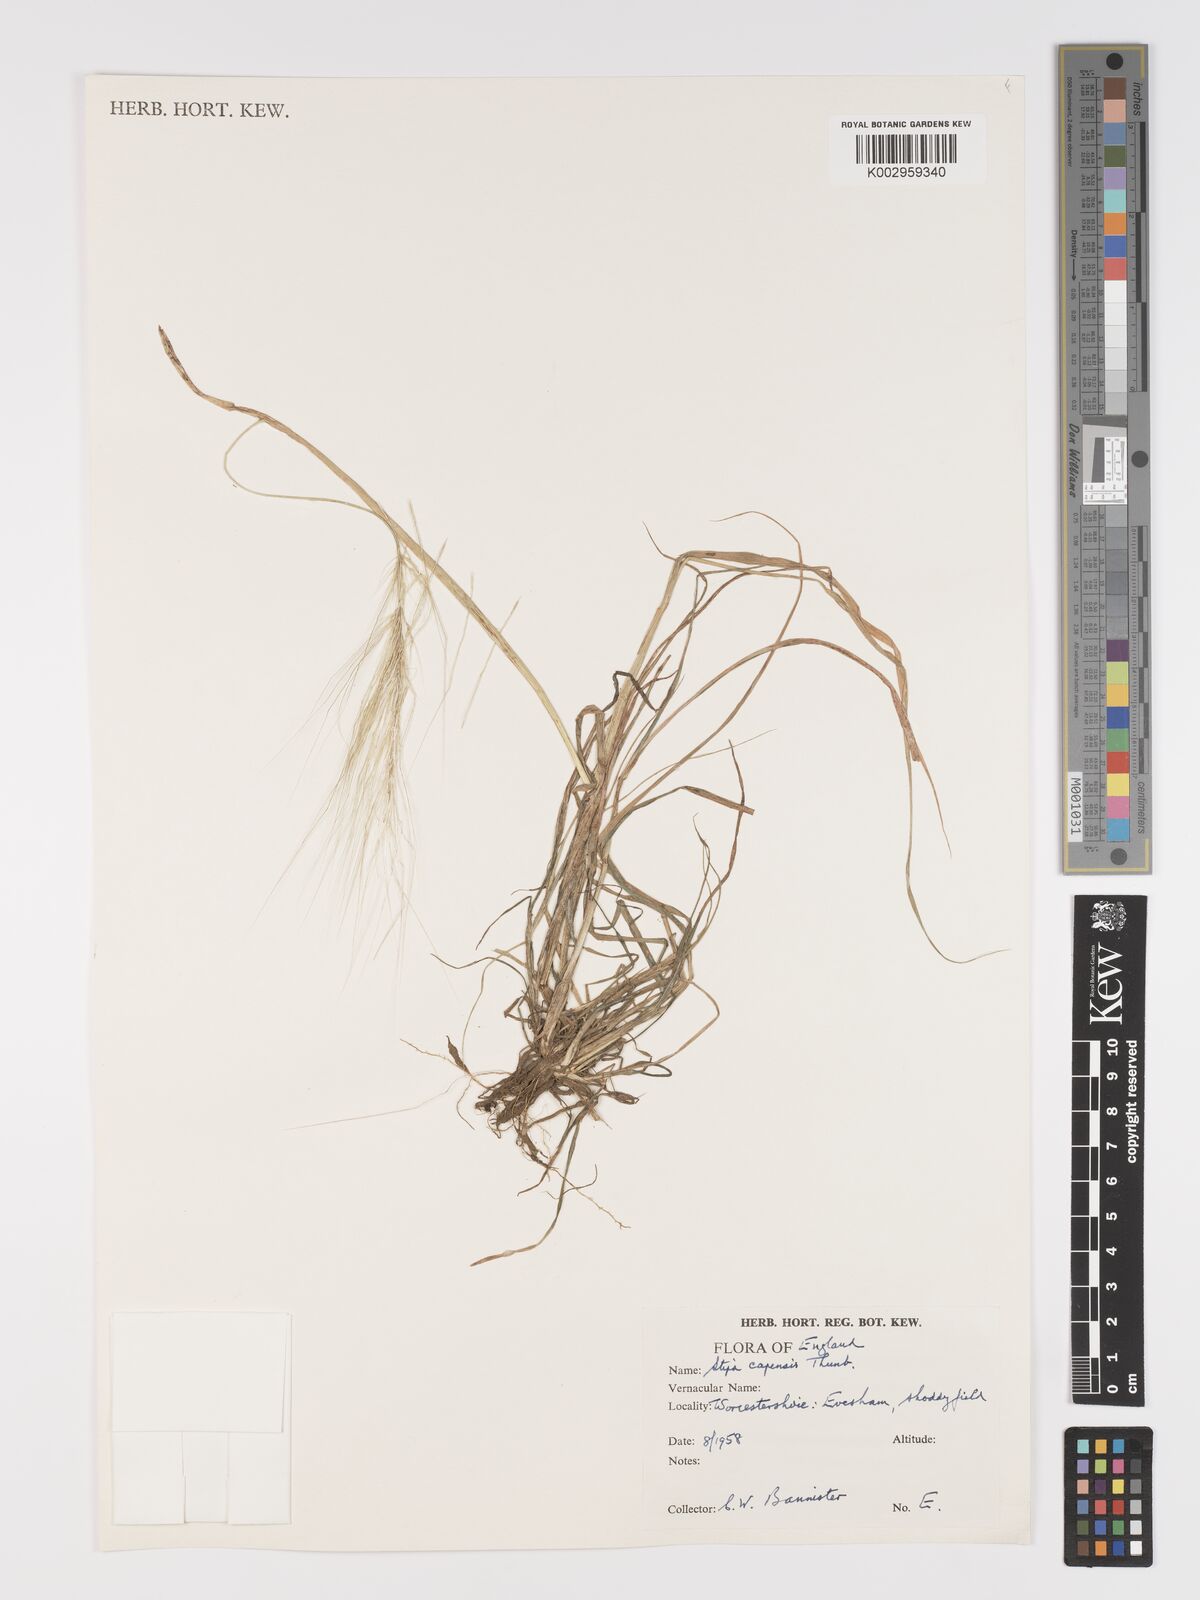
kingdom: Plantae
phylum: Tracheophyta
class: Liliopsida
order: Poales
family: Poaceae
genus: Stipellula
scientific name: Stipellula capensis
